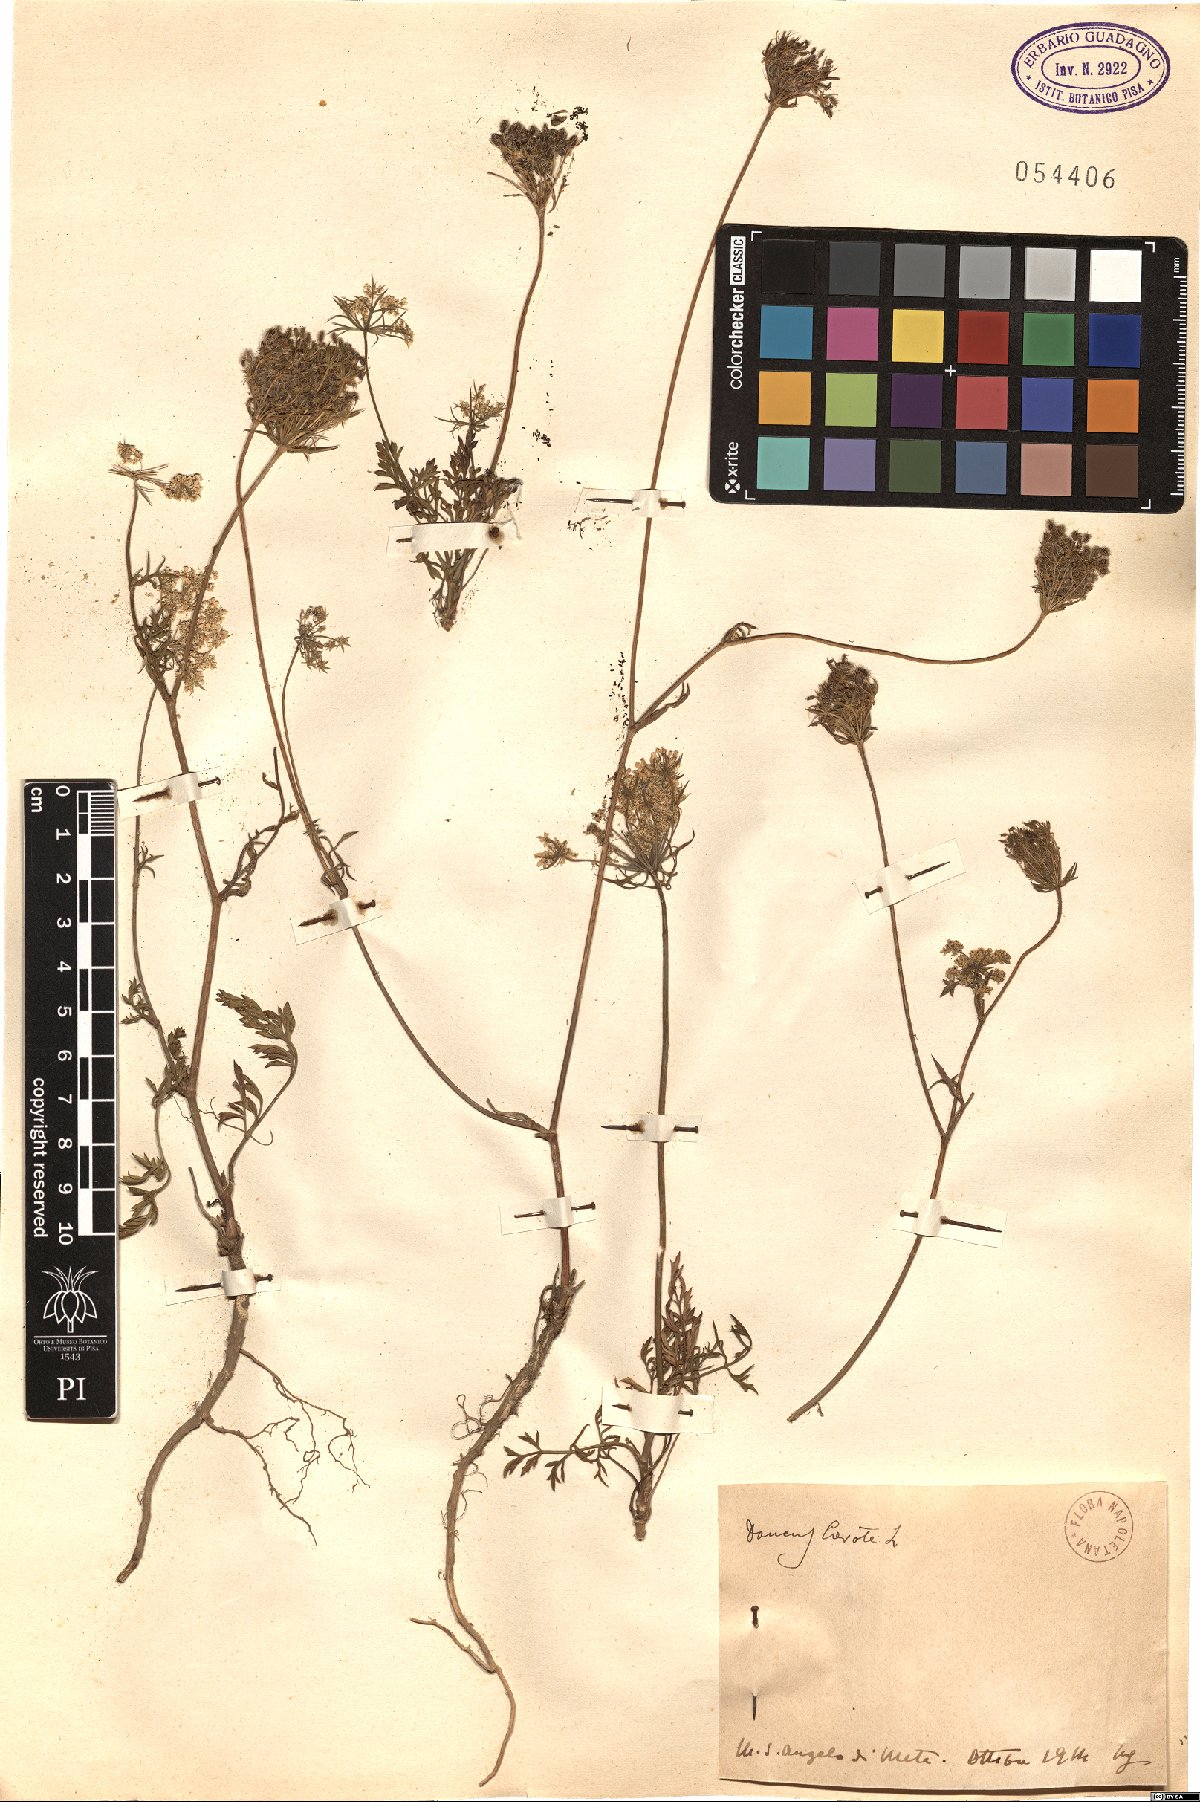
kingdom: Plantae
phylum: Tracheophyta
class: Magnoliopsida
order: Apiales
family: Apiaceae
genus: Daucus
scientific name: Daucus carota
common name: Wild carrot
